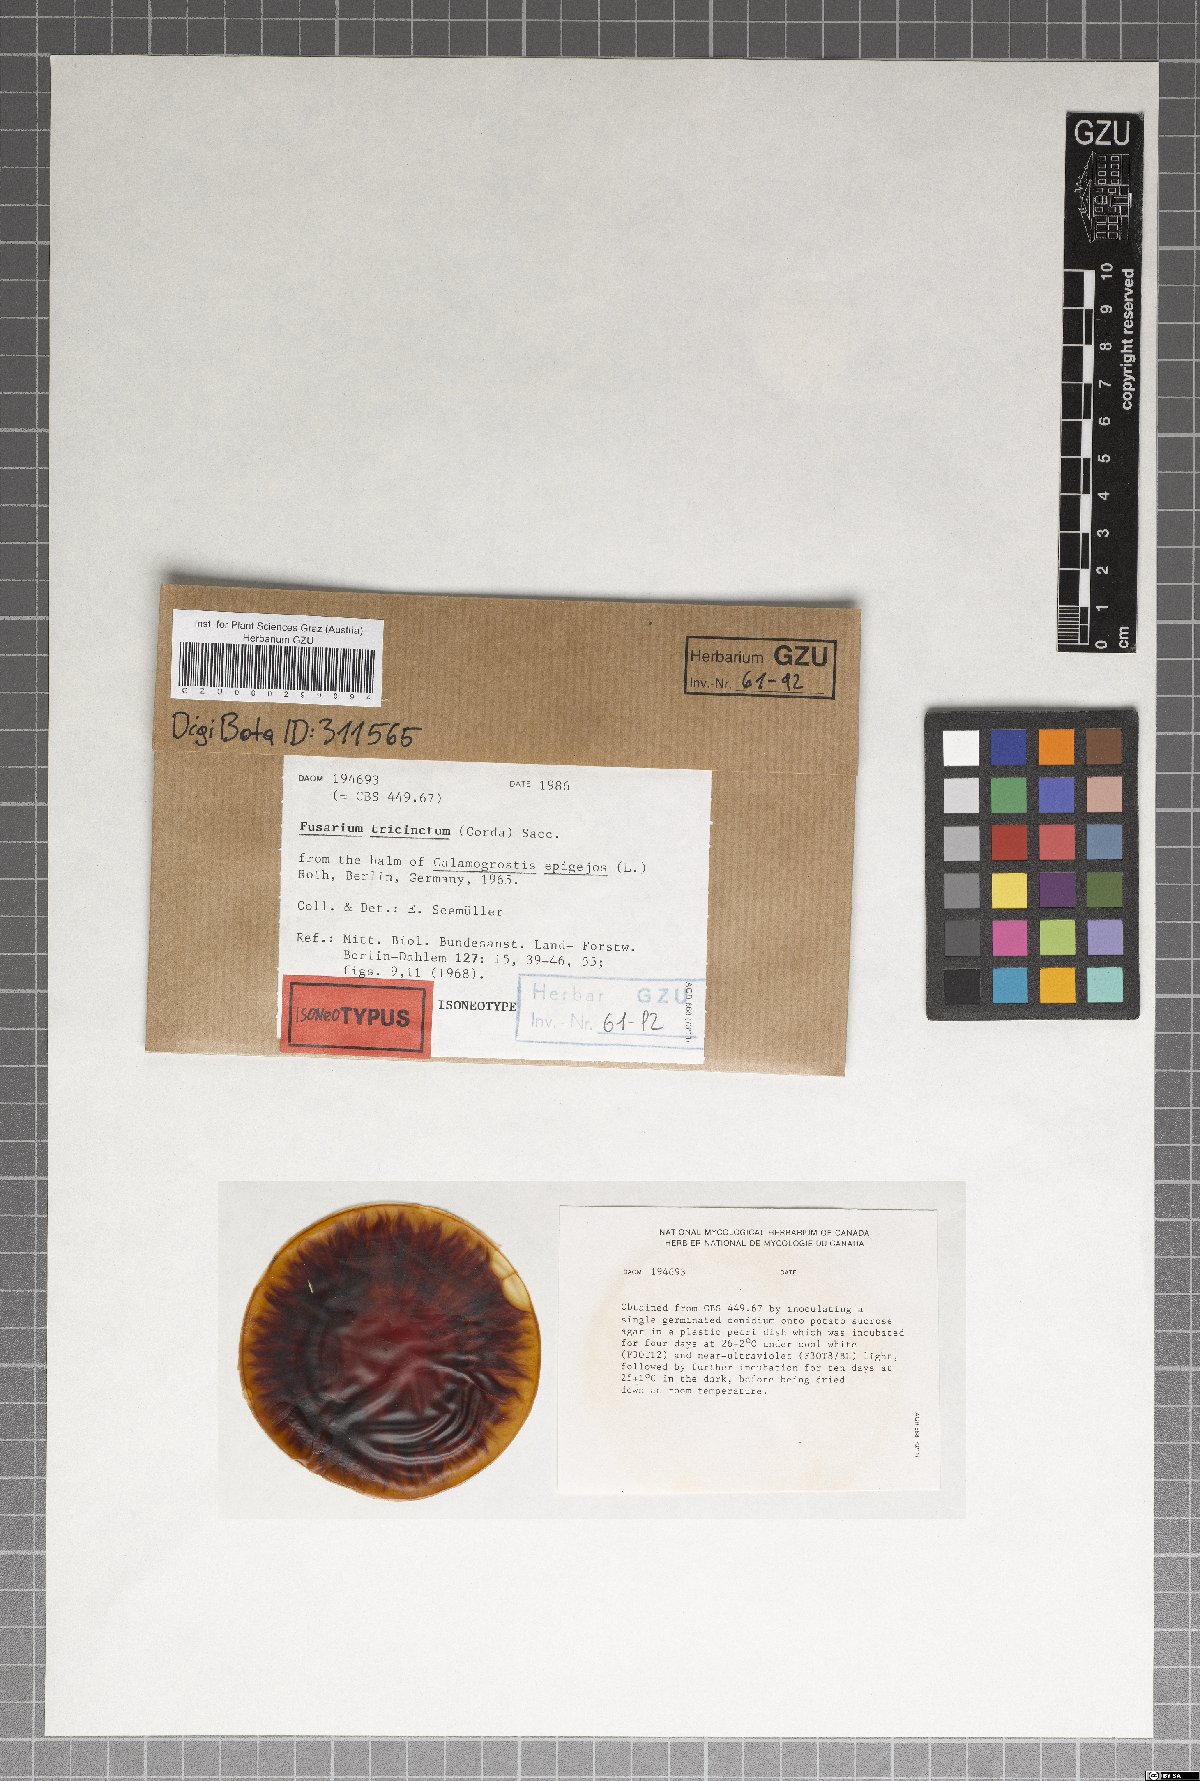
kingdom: Fungi
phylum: Ascomycota
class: Sordariomycetes
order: Hypocreales
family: Nectriaceae
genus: Fusarium
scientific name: Fusarium tricinctum
